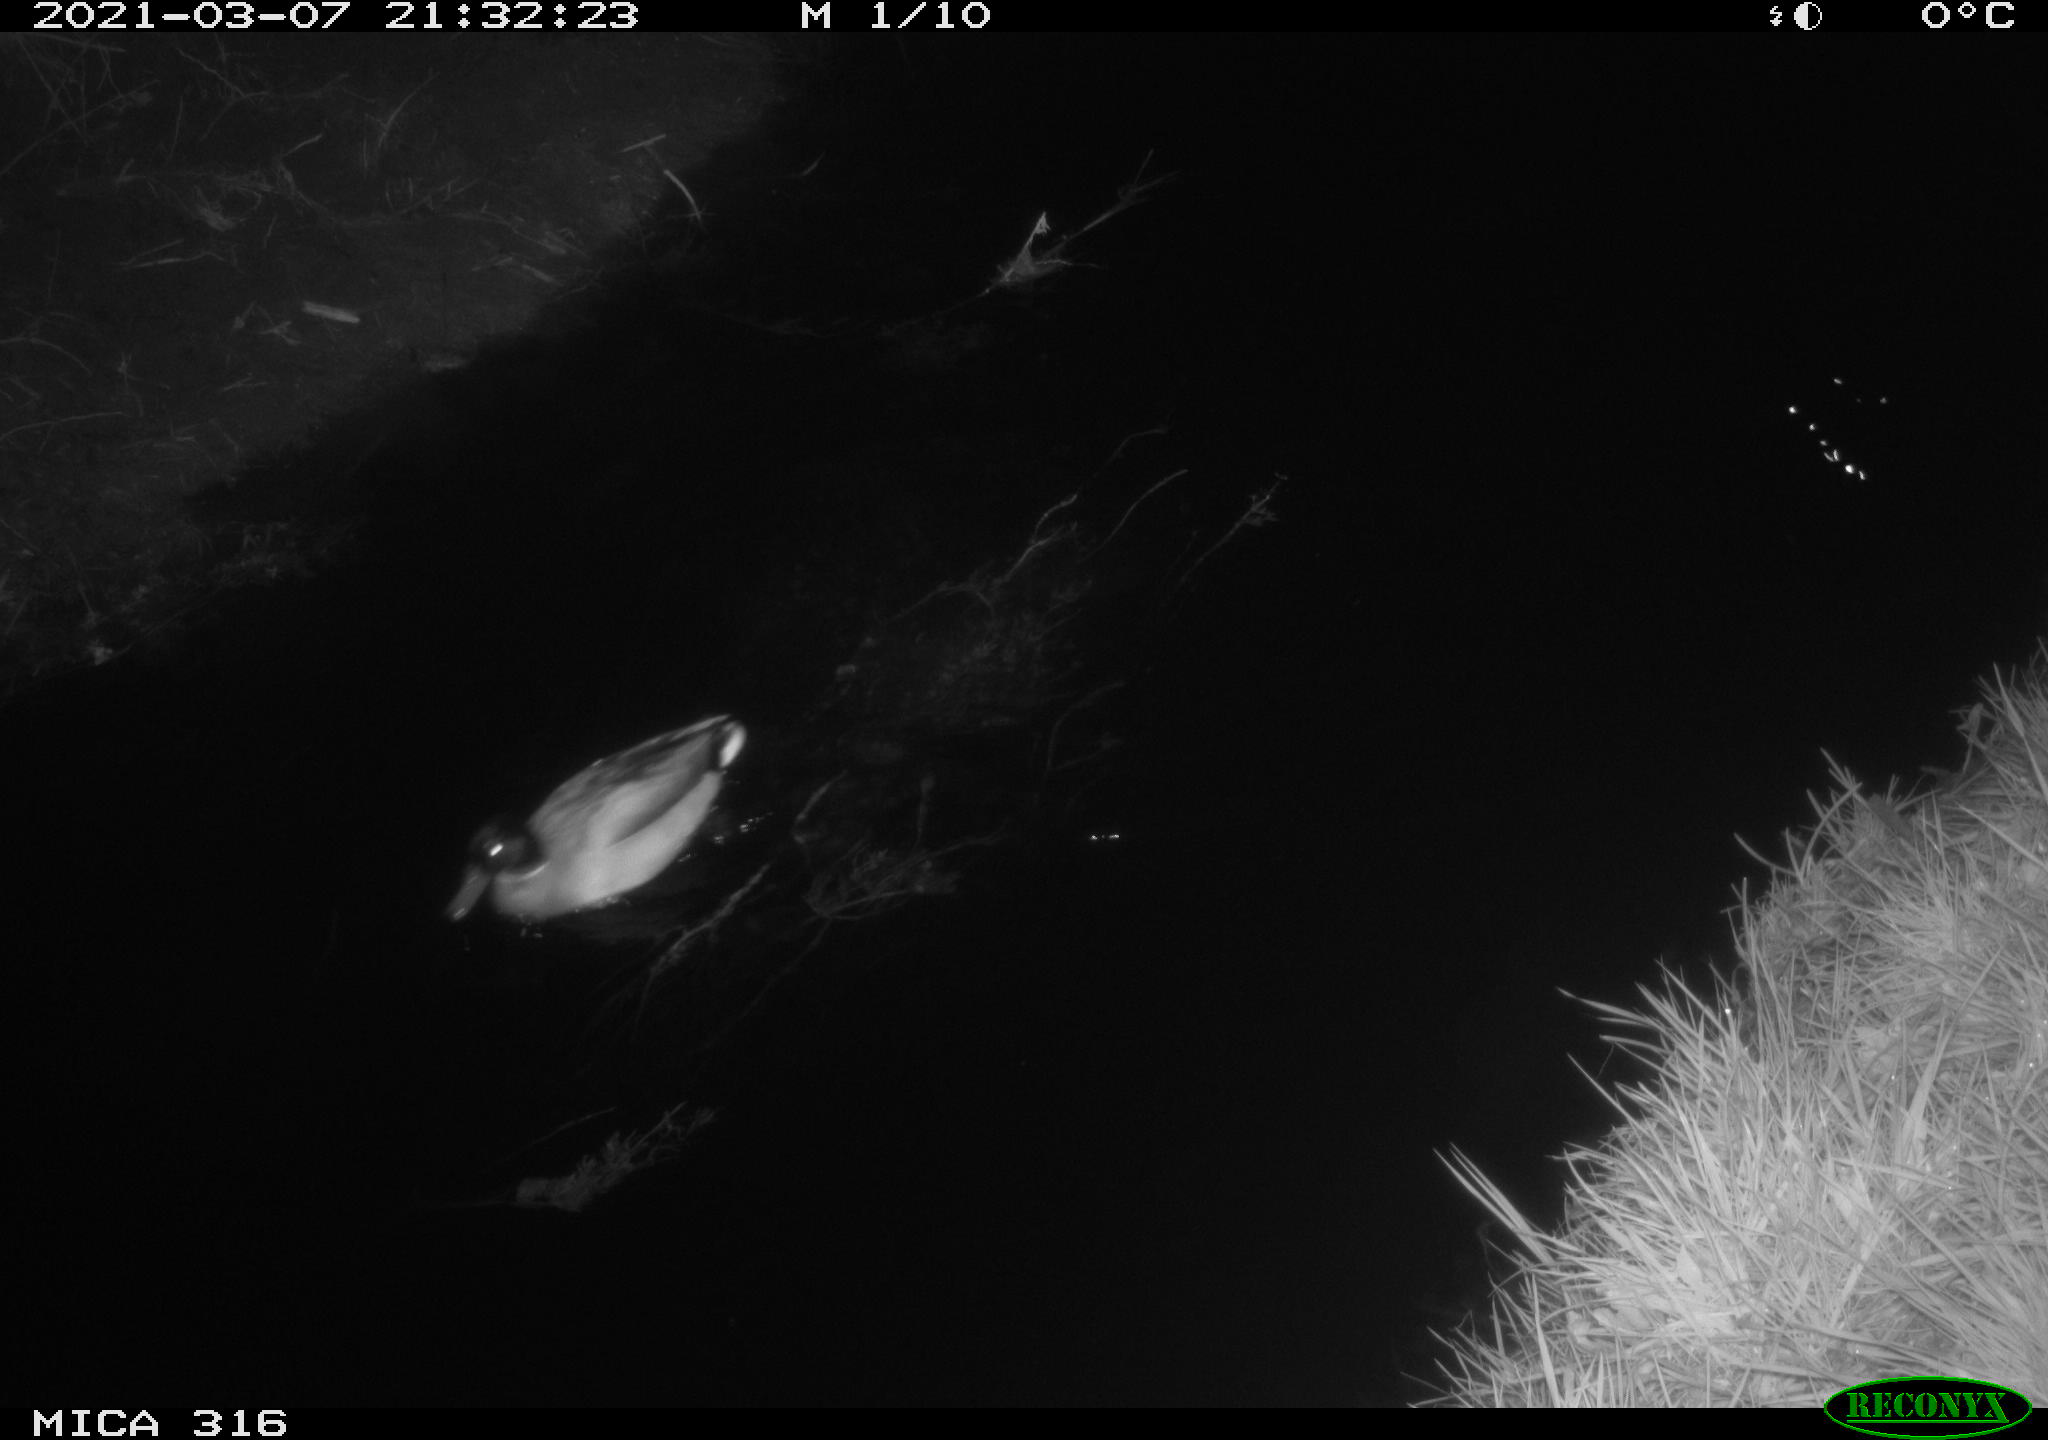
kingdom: Animalia
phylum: Chordata
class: Aves
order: Anseriformes
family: Anatidae
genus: Anas
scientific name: Anas platyrhynchos
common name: Mallard
